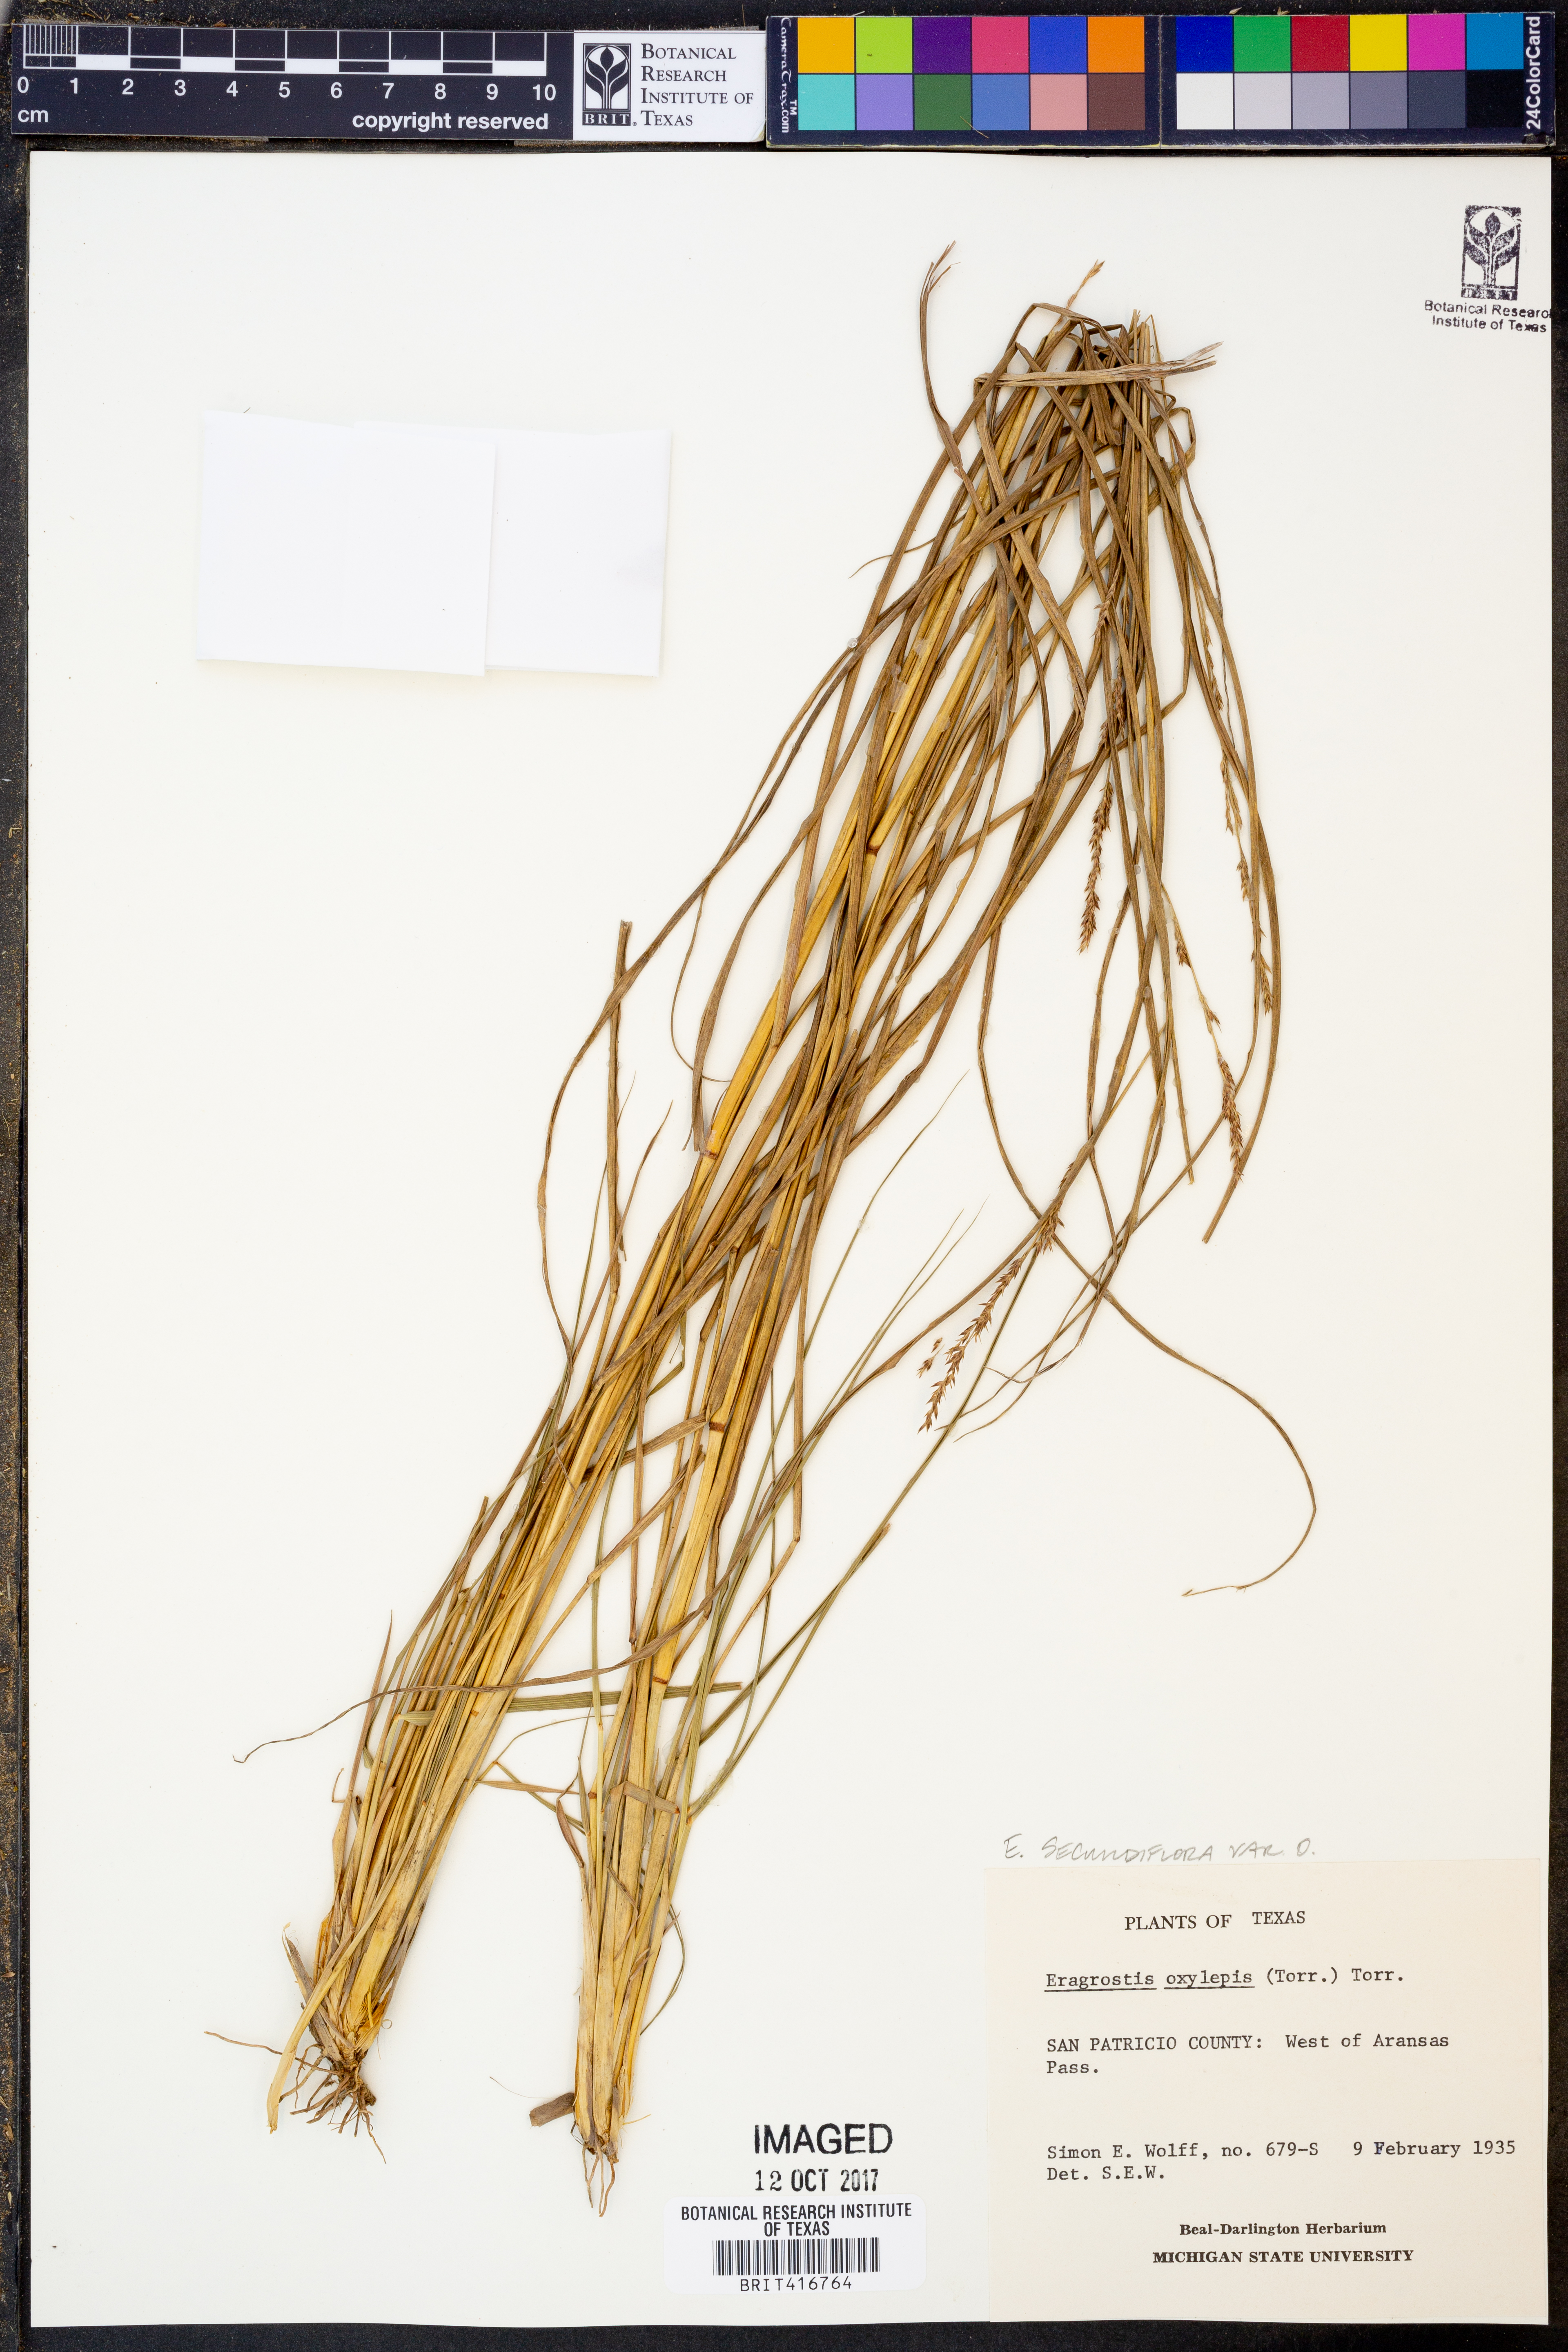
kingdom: Plantae
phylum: Tracheophyta
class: Liliopsida
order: Poales
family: Poaceae
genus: Eragrostis
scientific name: Eragrostis secundiflora
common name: Red love grass
